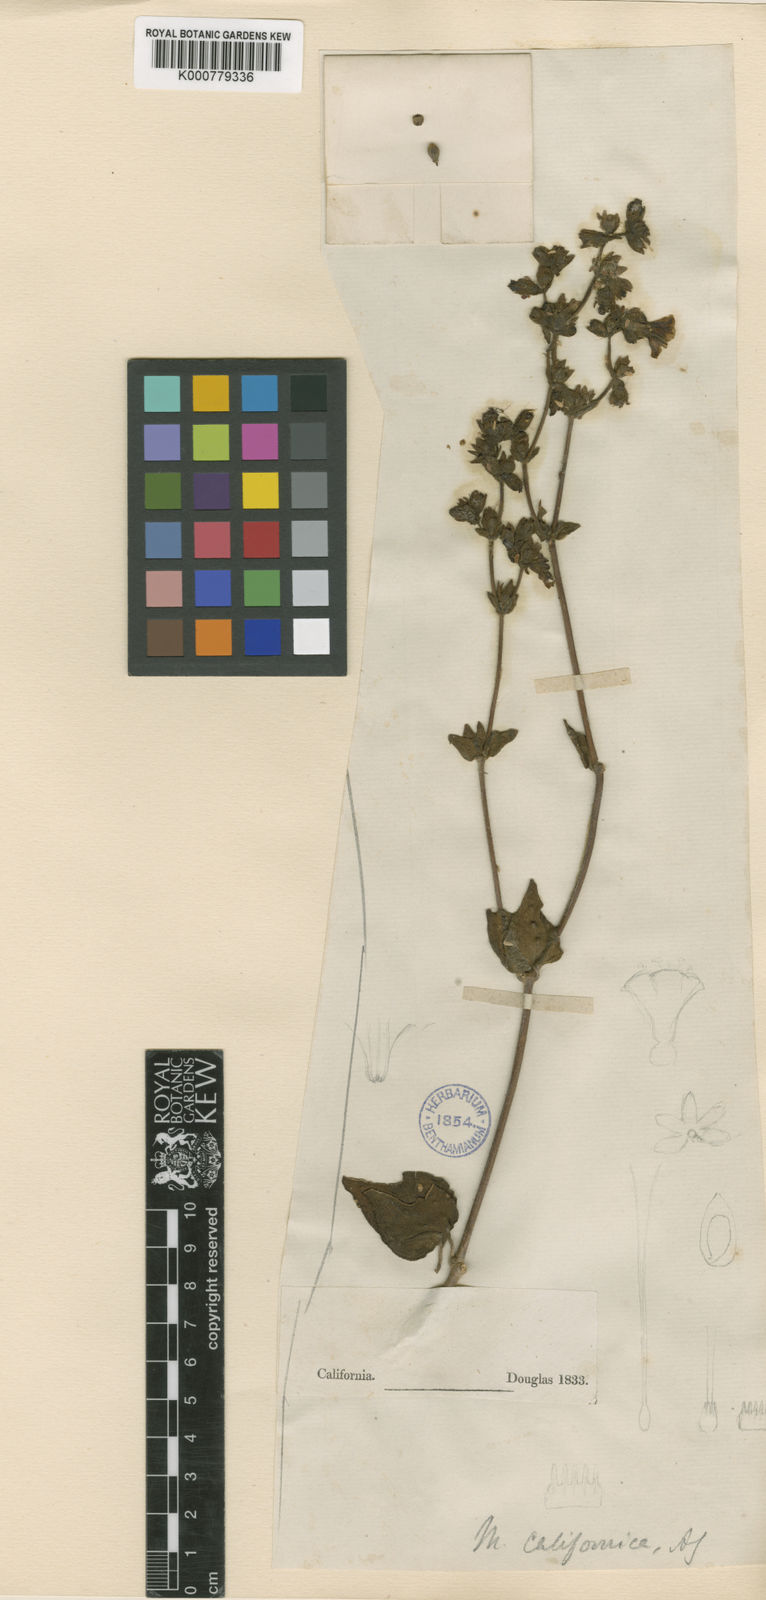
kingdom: Plantae
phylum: Tracheophyta
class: Magnoliopsida
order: Caryophyllales
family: Nyctaginaceae
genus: Mirabilis
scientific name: Mirabilis laevis
